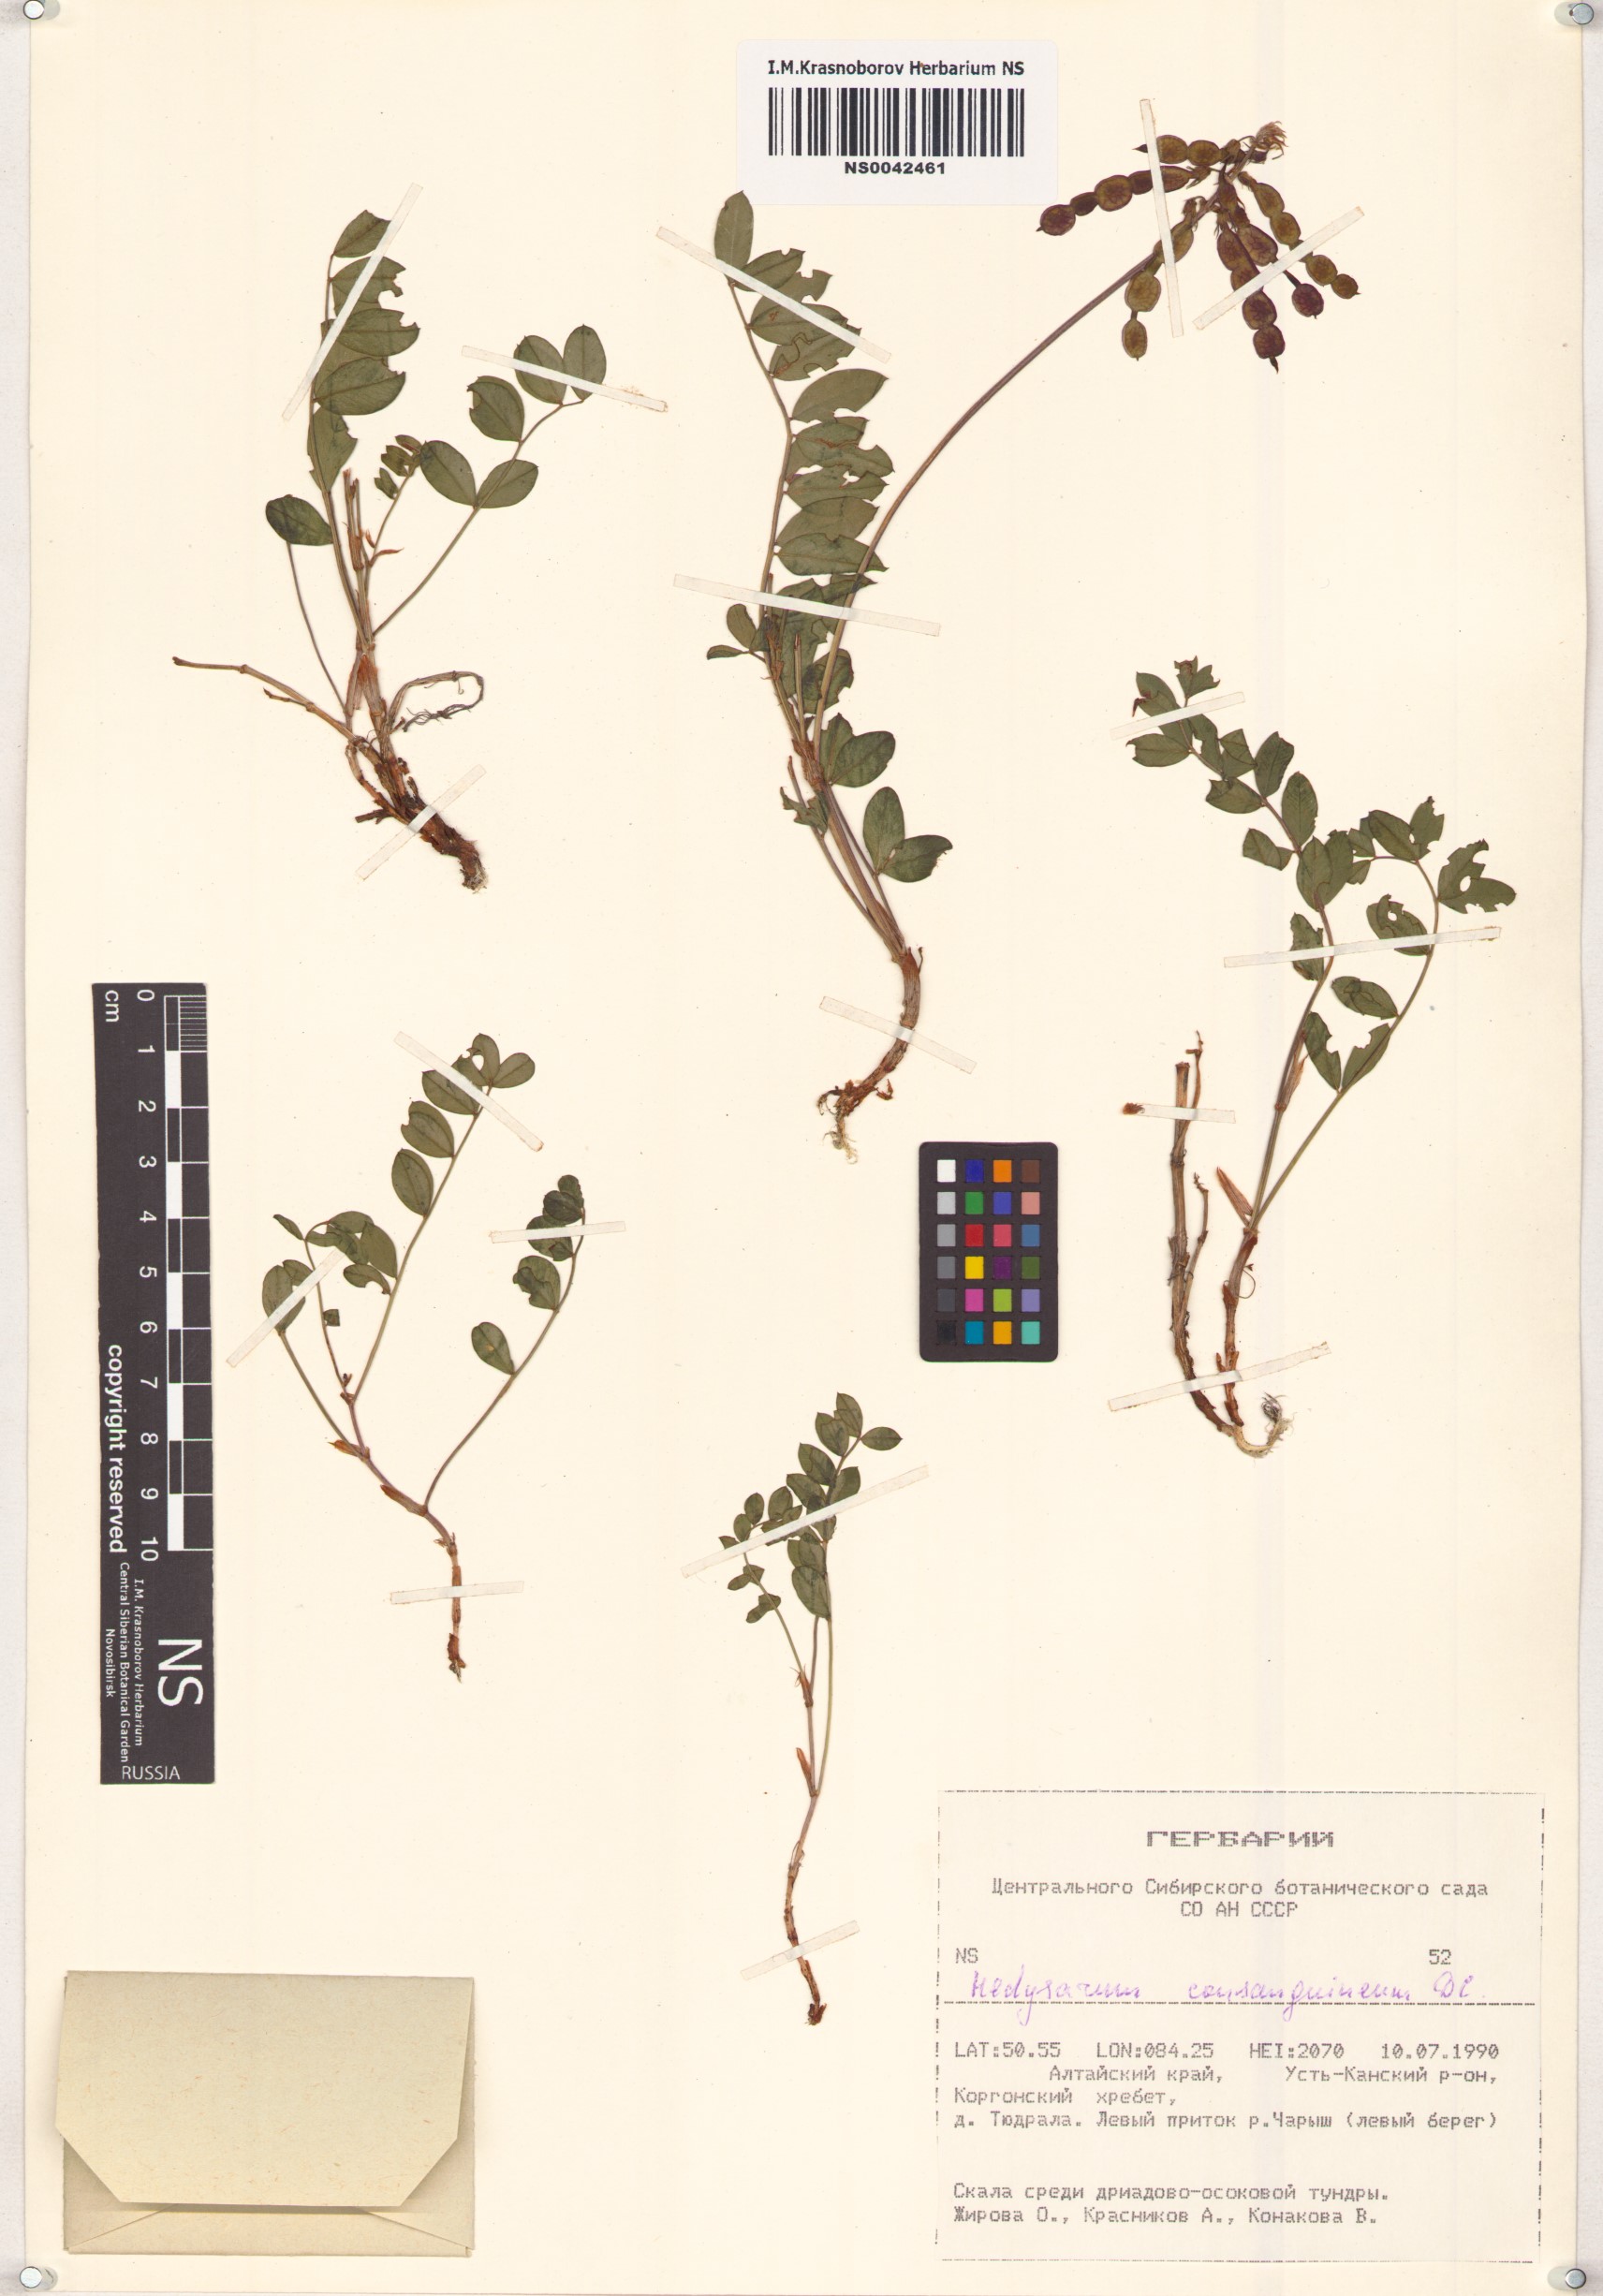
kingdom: Plantae
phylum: Tracheophyta
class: Magnoliopsida
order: Fabales
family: Fabaceae
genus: Hedysarum
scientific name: Hedysarum consanguineum
